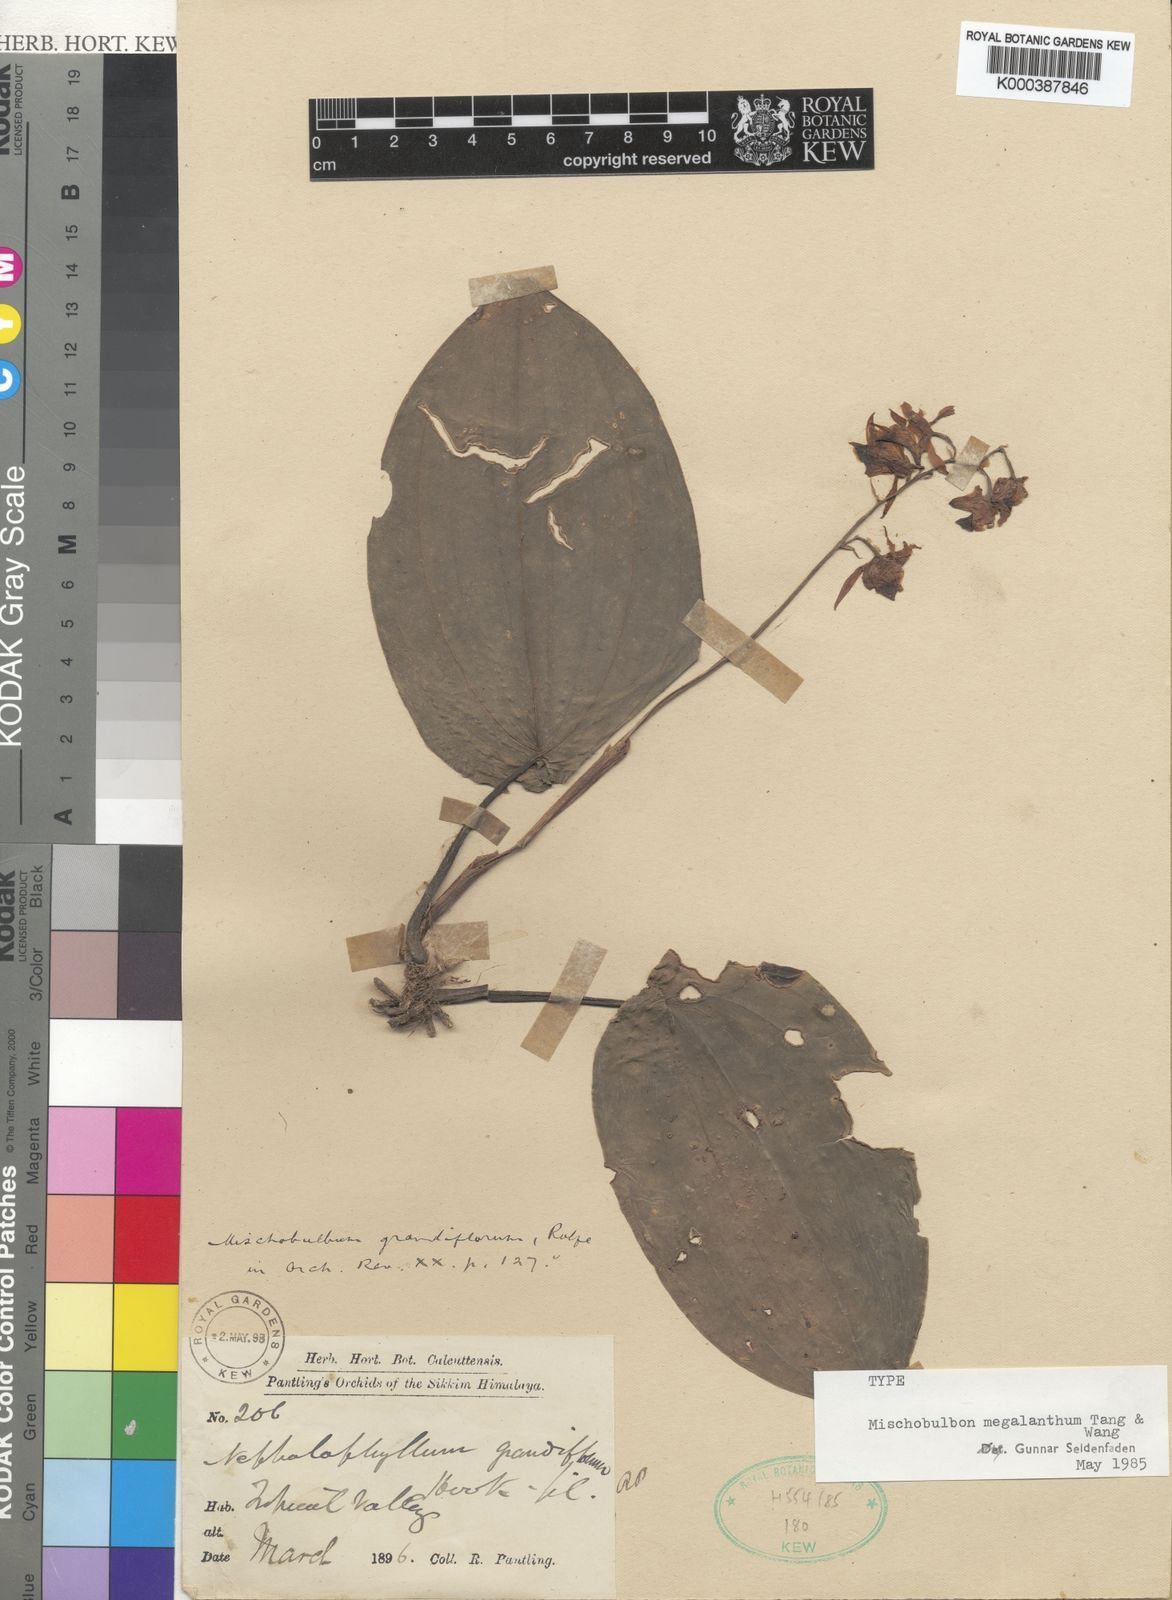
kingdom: Plantae
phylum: Tracheophyta
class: Liliopsida
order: Asparagales
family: Orchidaceae
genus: Tainia
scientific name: Tainia megalantha
